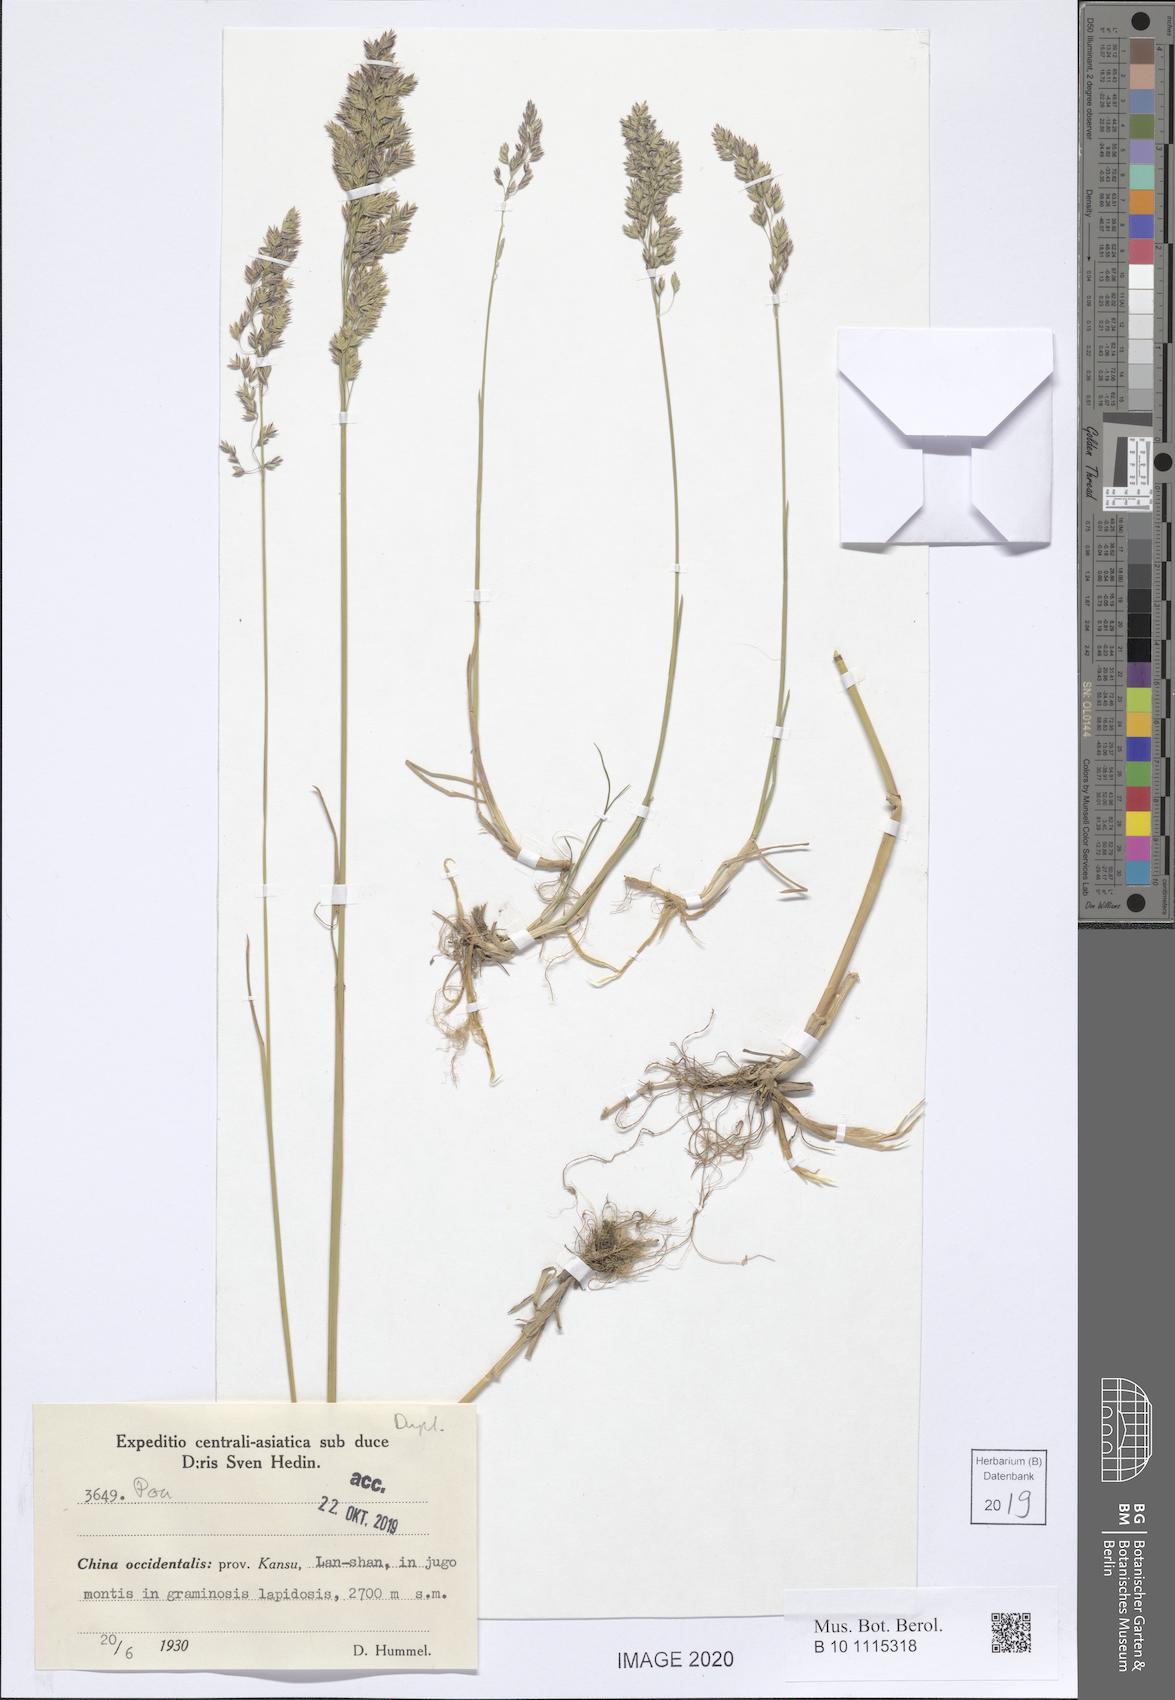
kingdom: Plantae
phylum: Tracheophyta
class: Liliopsida
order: Poales
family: Poaceae
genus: Poa
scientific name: Poa
